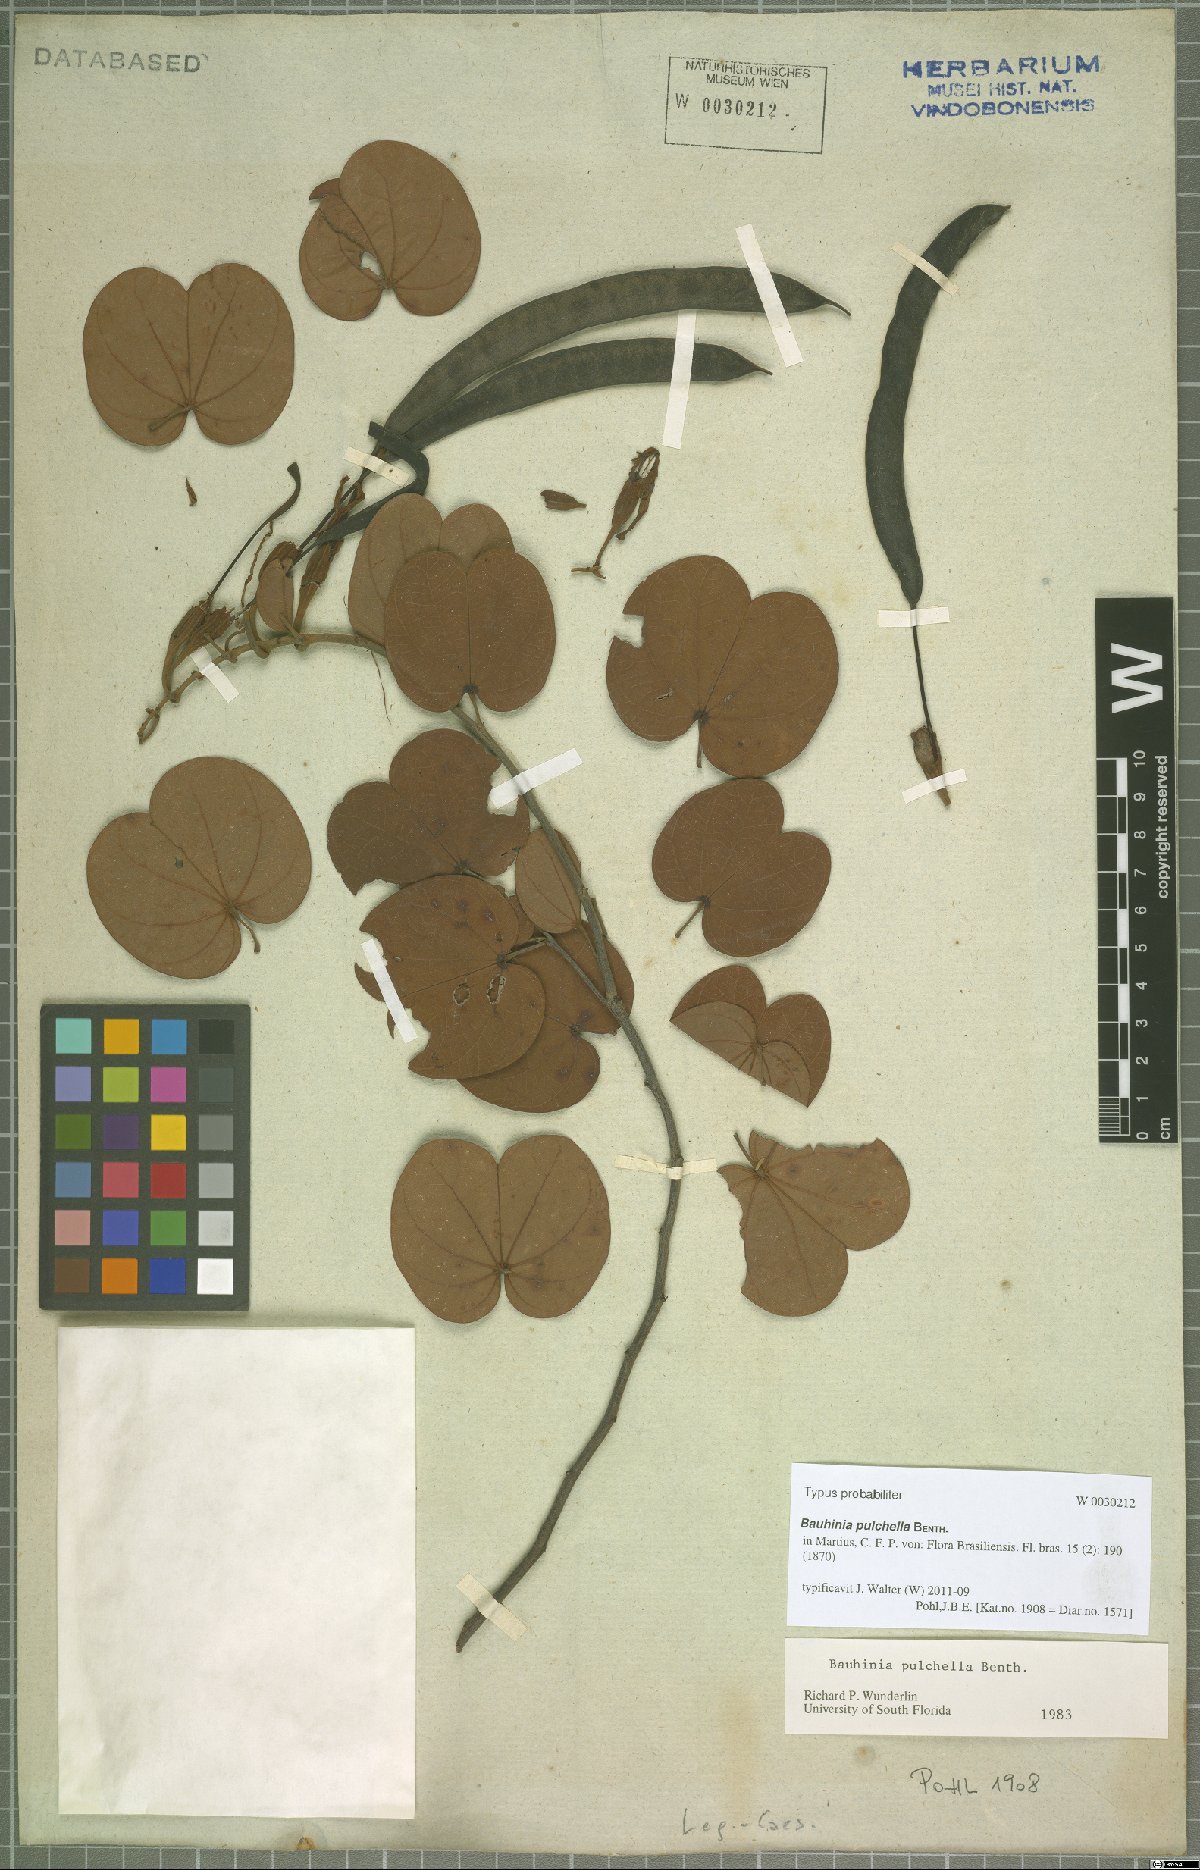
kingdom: Plantae
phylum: Tracheophyta
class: Magnoliopsida
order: Fabales
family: Fabaceae
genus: Bauhinia
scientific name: Bauhinia pulchella
